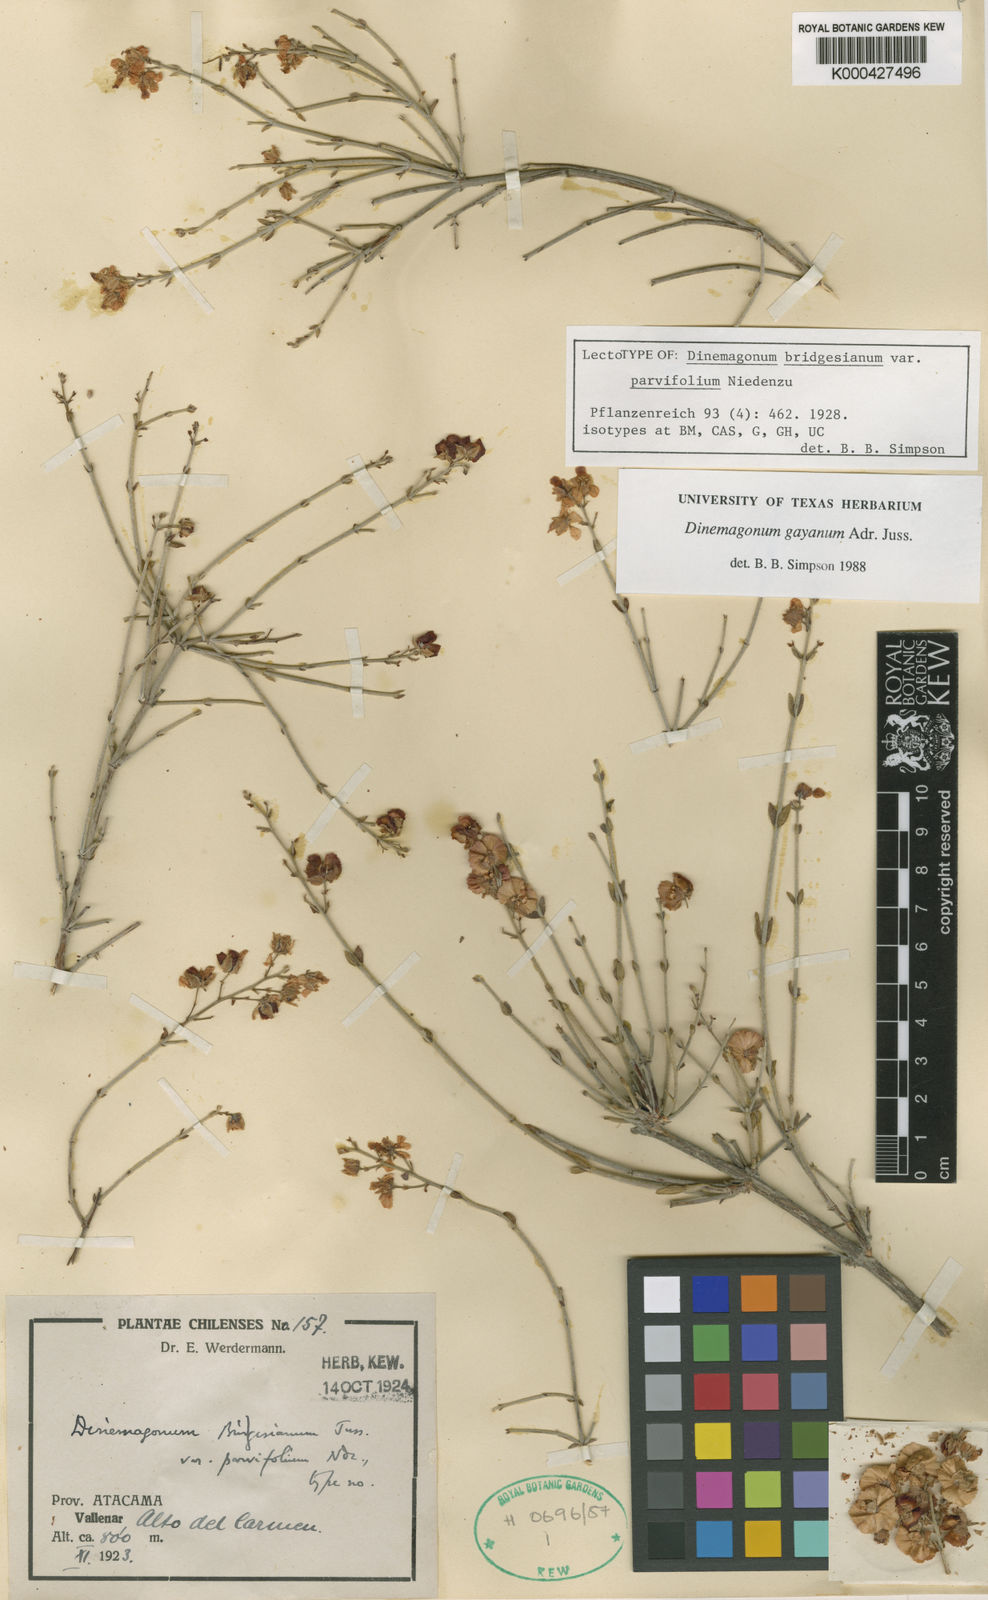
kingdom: Plantae
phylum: Tracheophyta
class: Magnoliopsida
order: Malpighiales
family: Malpighiaceae
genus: Dinemagonum
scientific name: Dinemagonum gayanum
